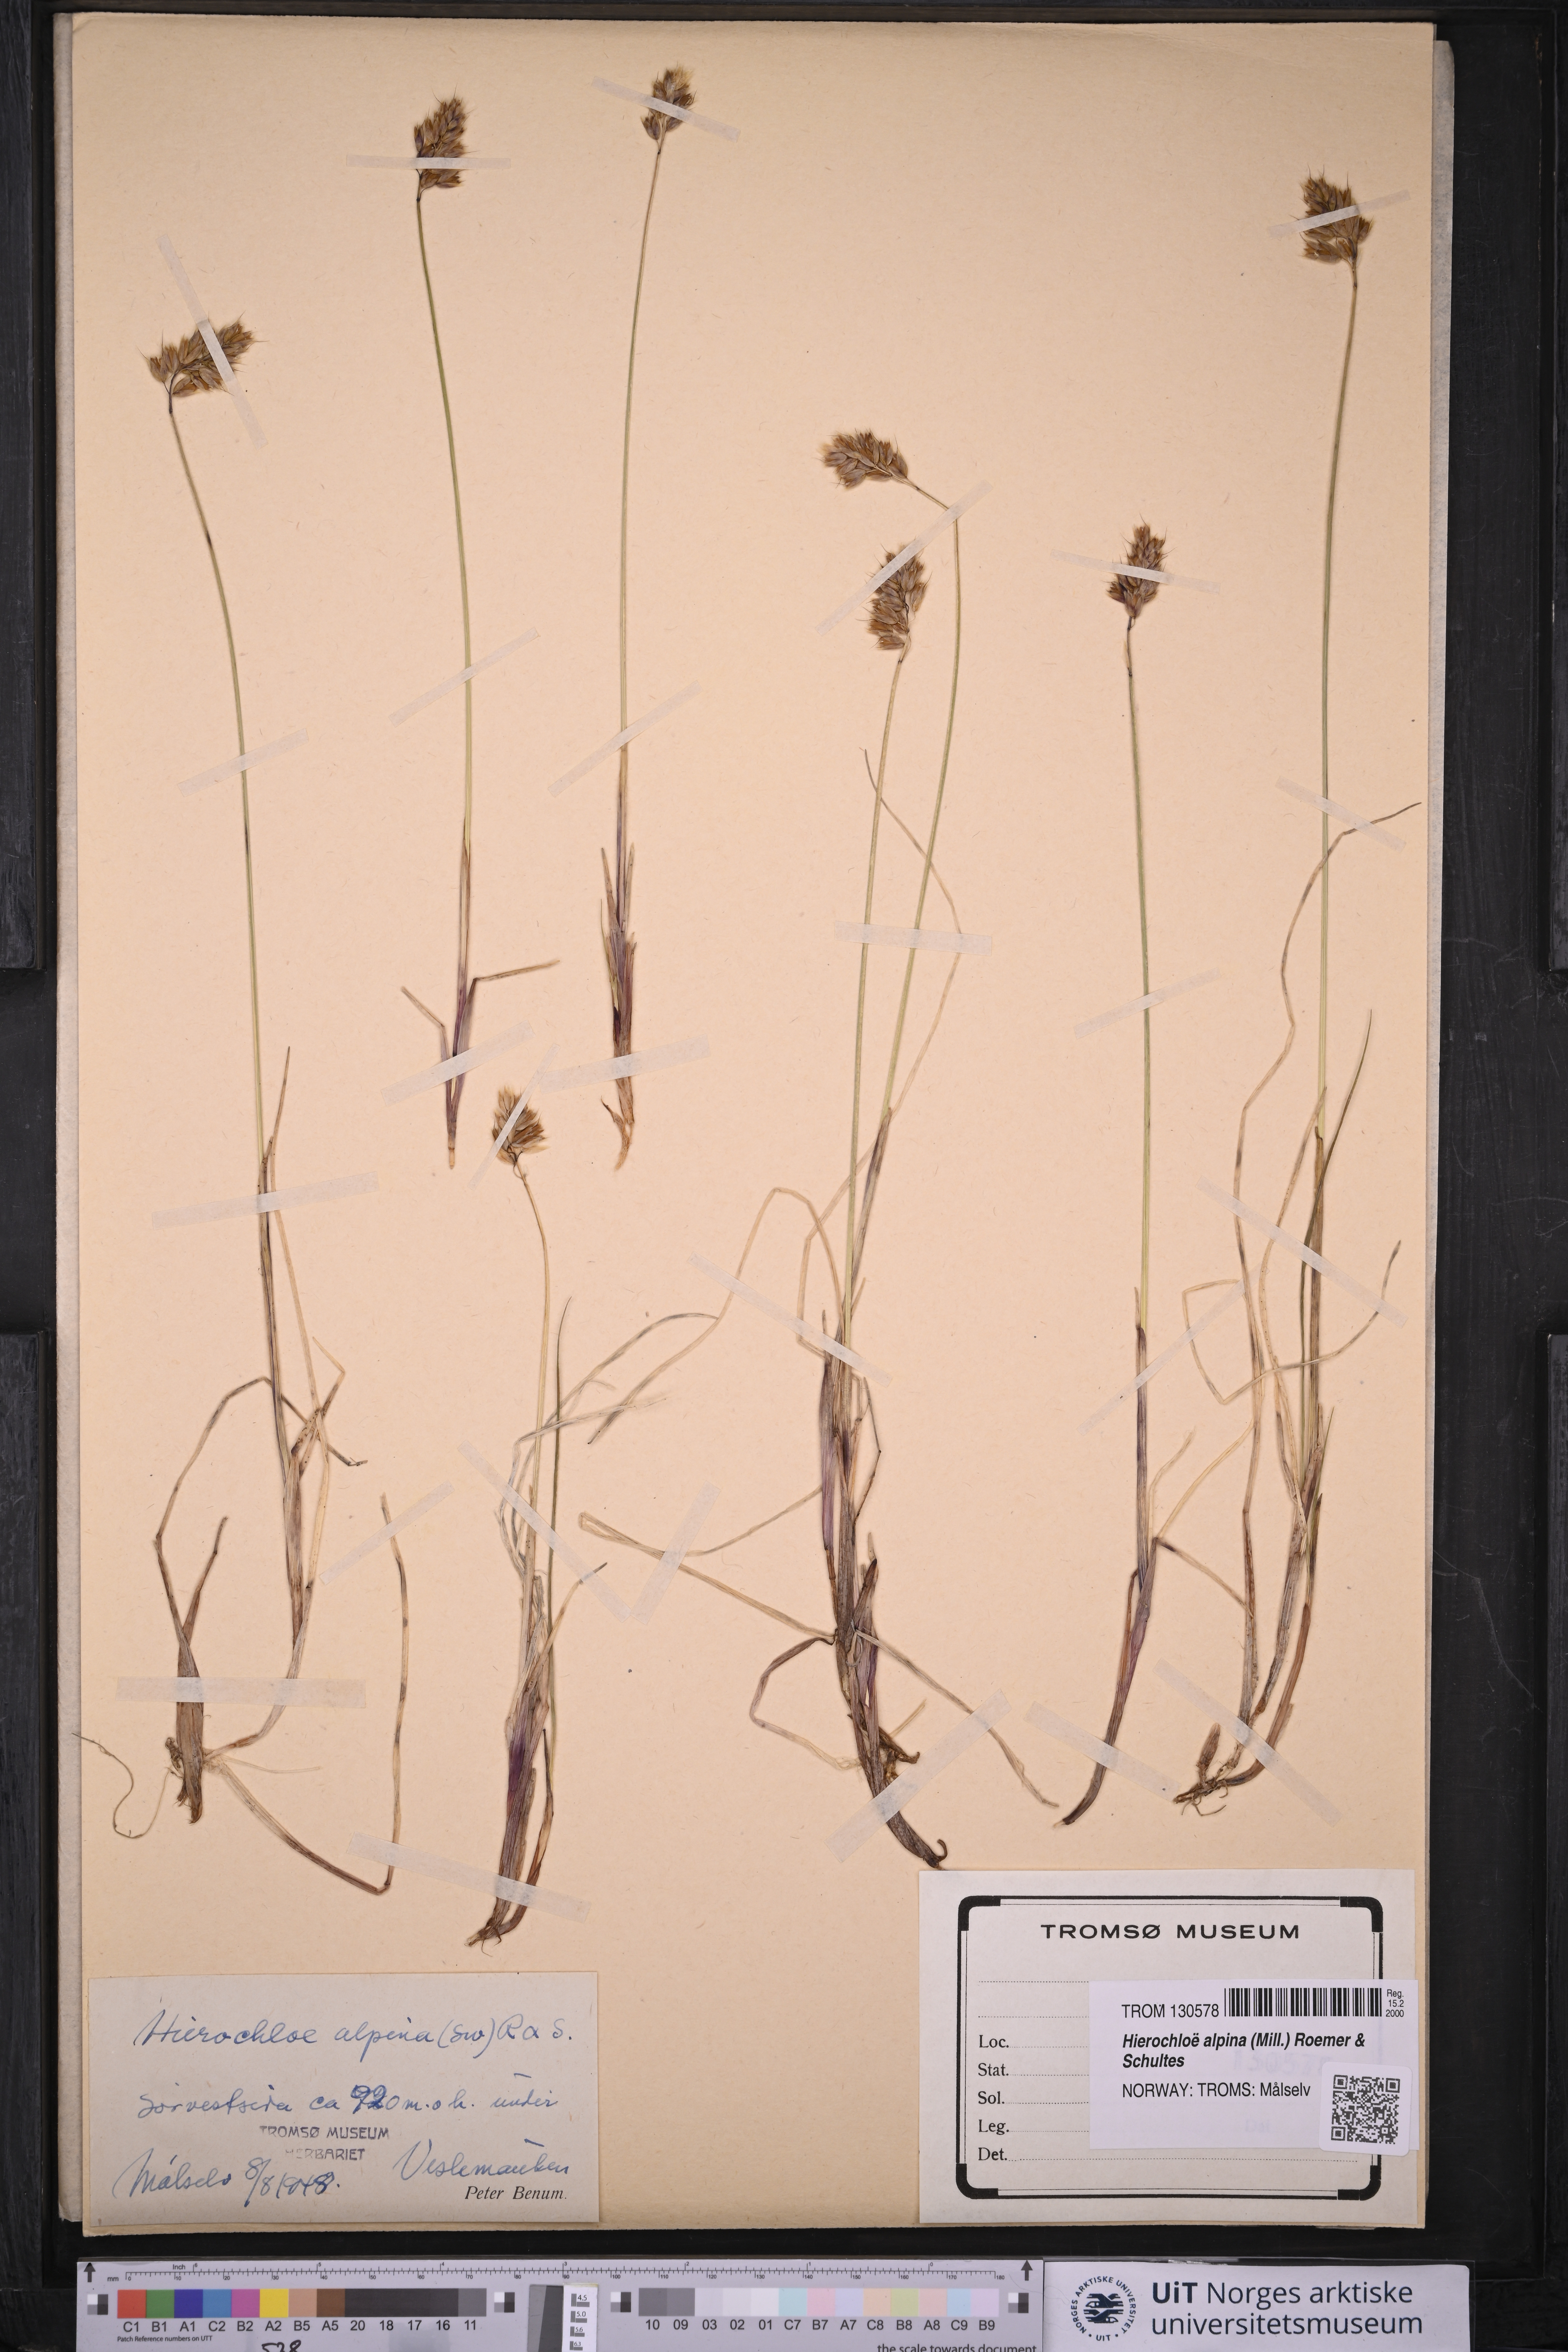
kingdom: Plantae
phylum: Tracheophyta
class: Liliopsida
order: Poales
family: Poaceae
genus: Anthoxanthum
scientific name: Anthoxanthum monticola
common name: Alpine sweetgrass
